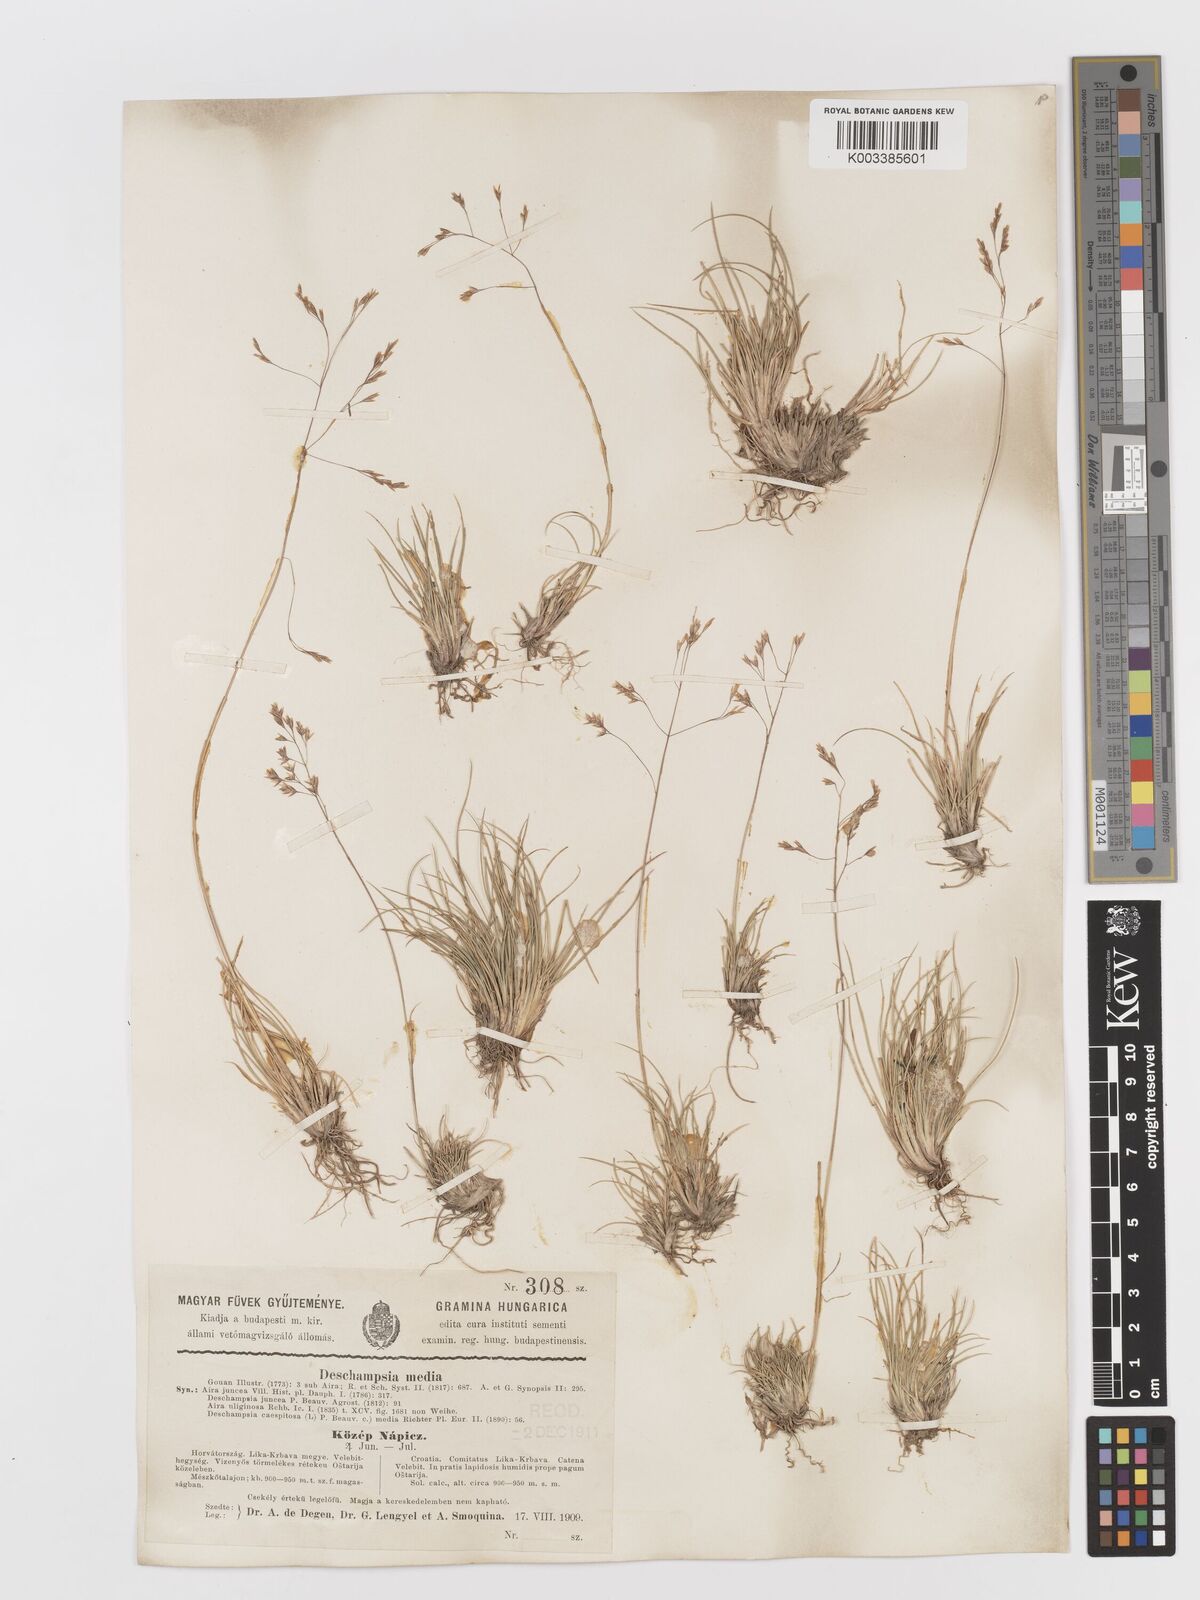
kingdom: Plantae
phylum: Tracheophyta
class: Liliopsida
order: Poales
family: Poaceae
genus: Deschampsia
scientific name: Deschampsia media
